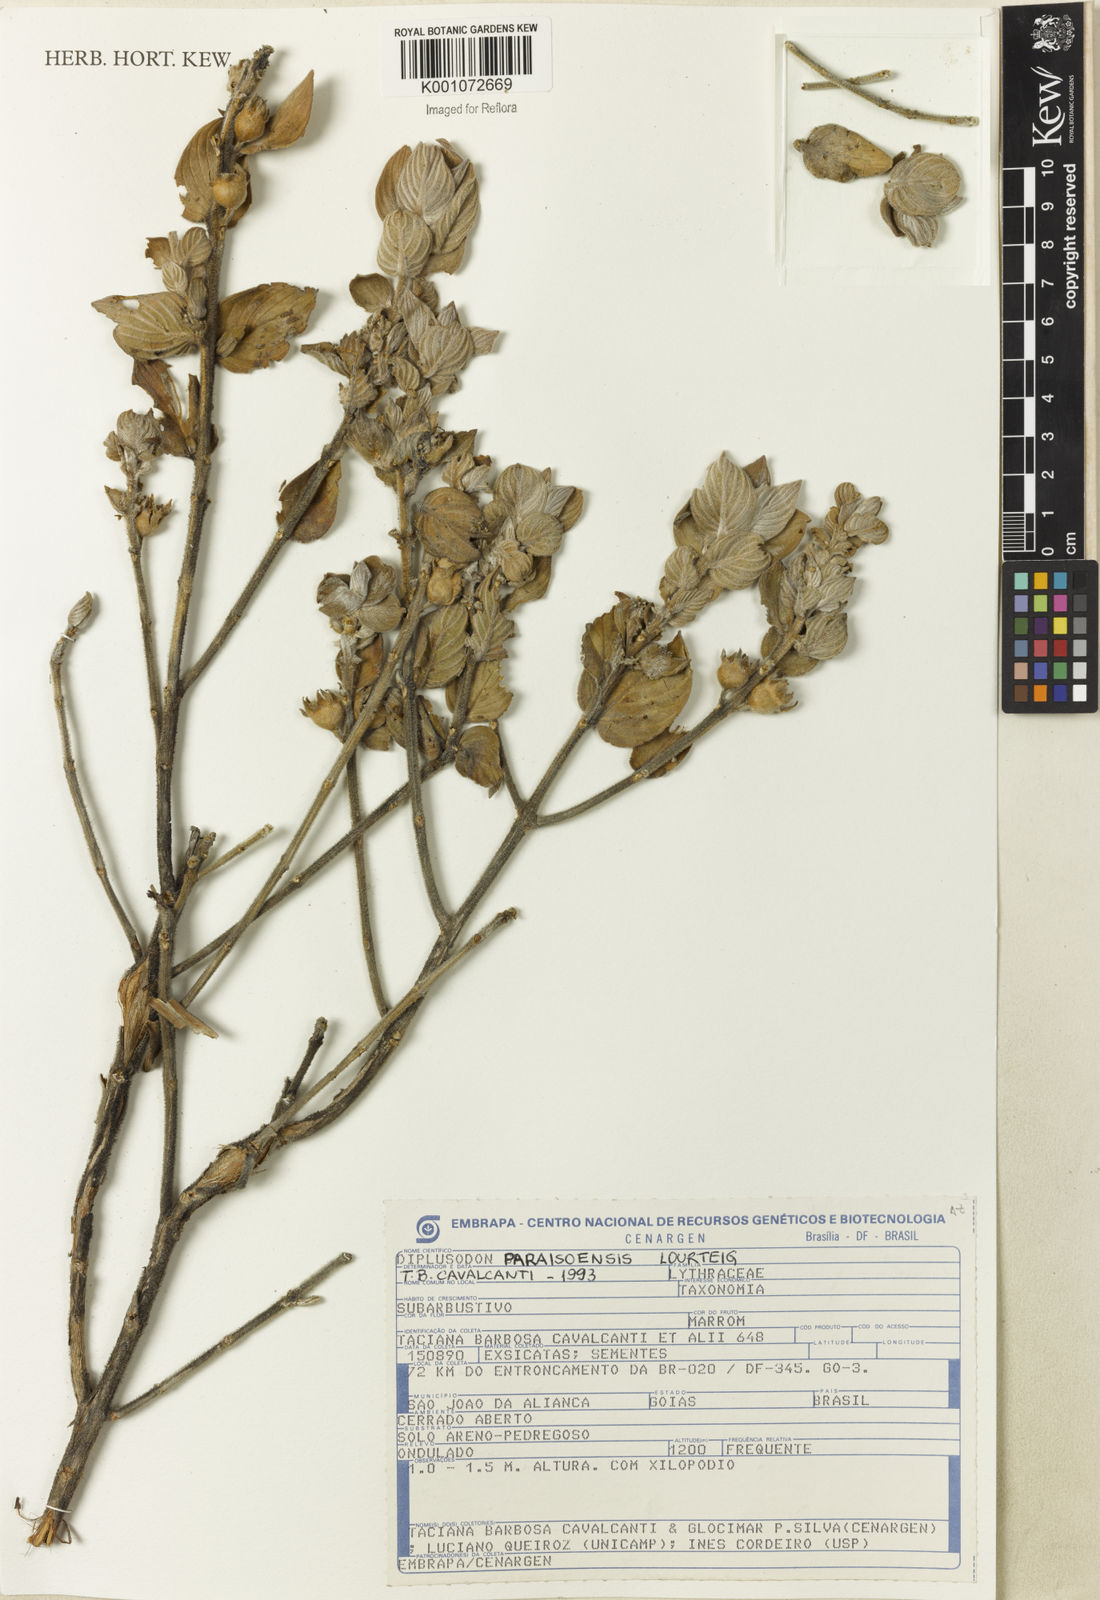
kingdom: Plantae
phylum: Tracheophyta
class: Magnoliopsida
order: Myrtales
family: Lythraceae
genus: Diplusodon
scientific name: Diplusodon paraisoensis
